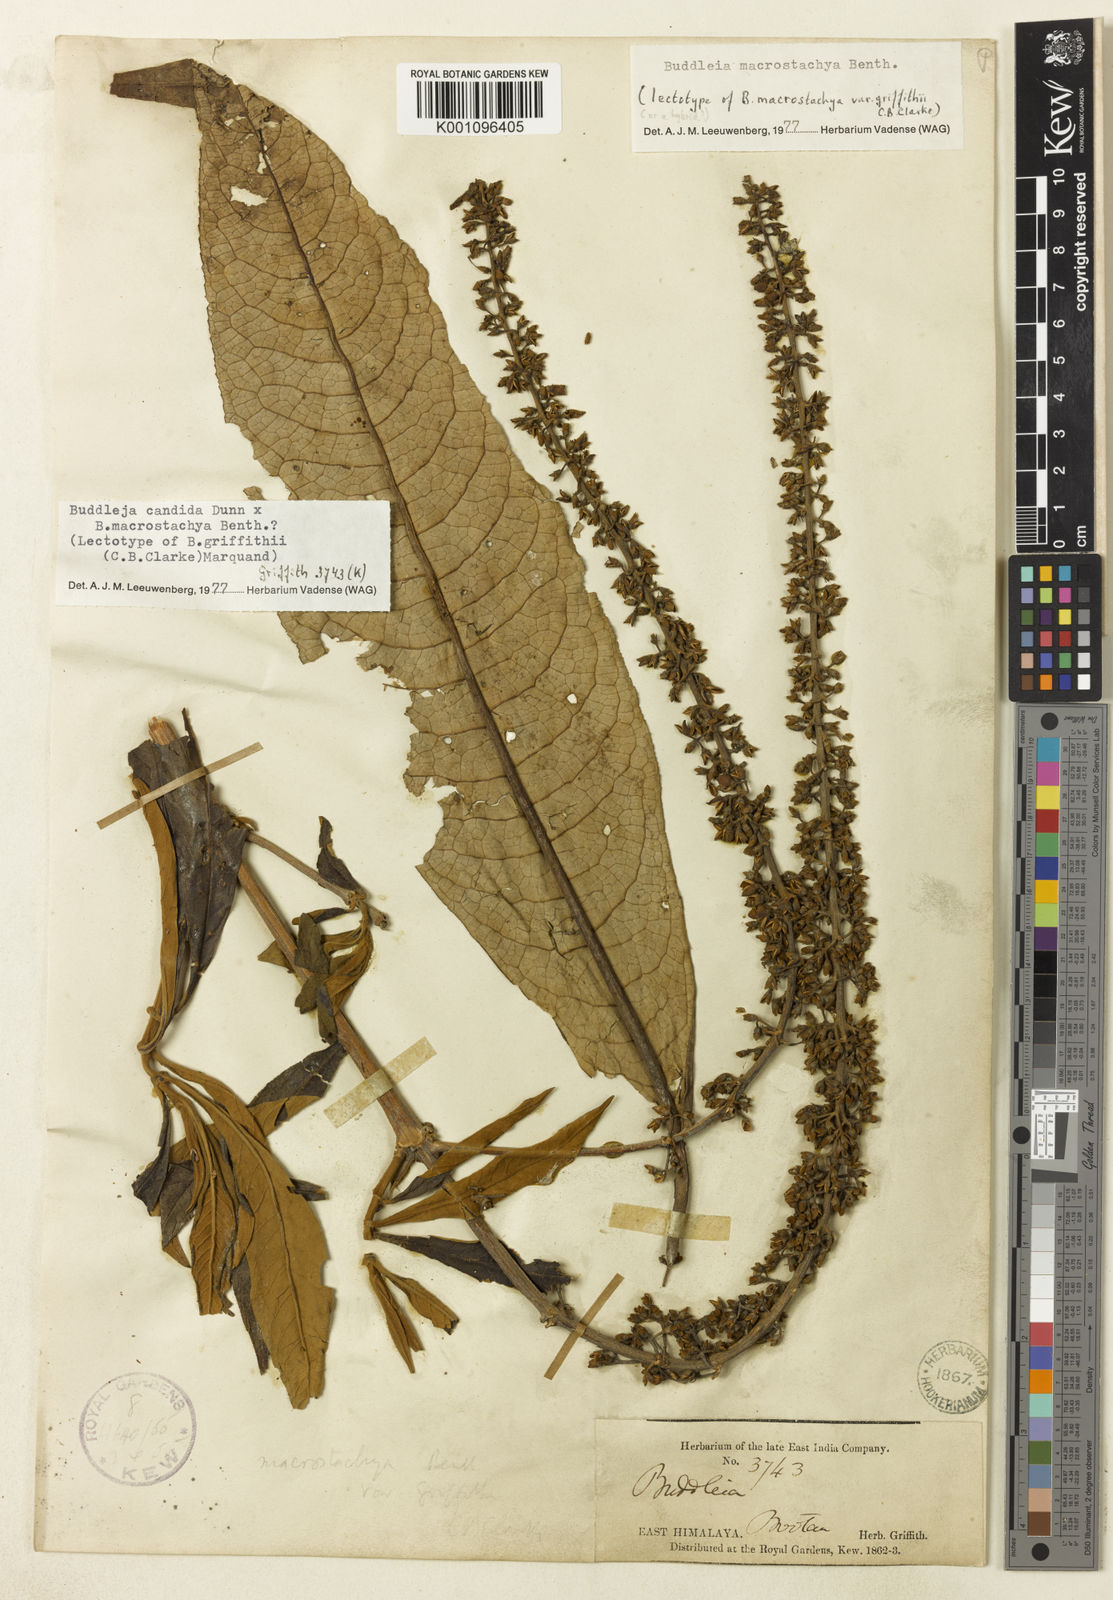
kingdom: Plantae
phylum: Tracheophyta
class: Magnoliopsida
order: Lamiales
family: Scrophulariaceae
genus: Buddleja
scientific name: Buddleja griffithii
